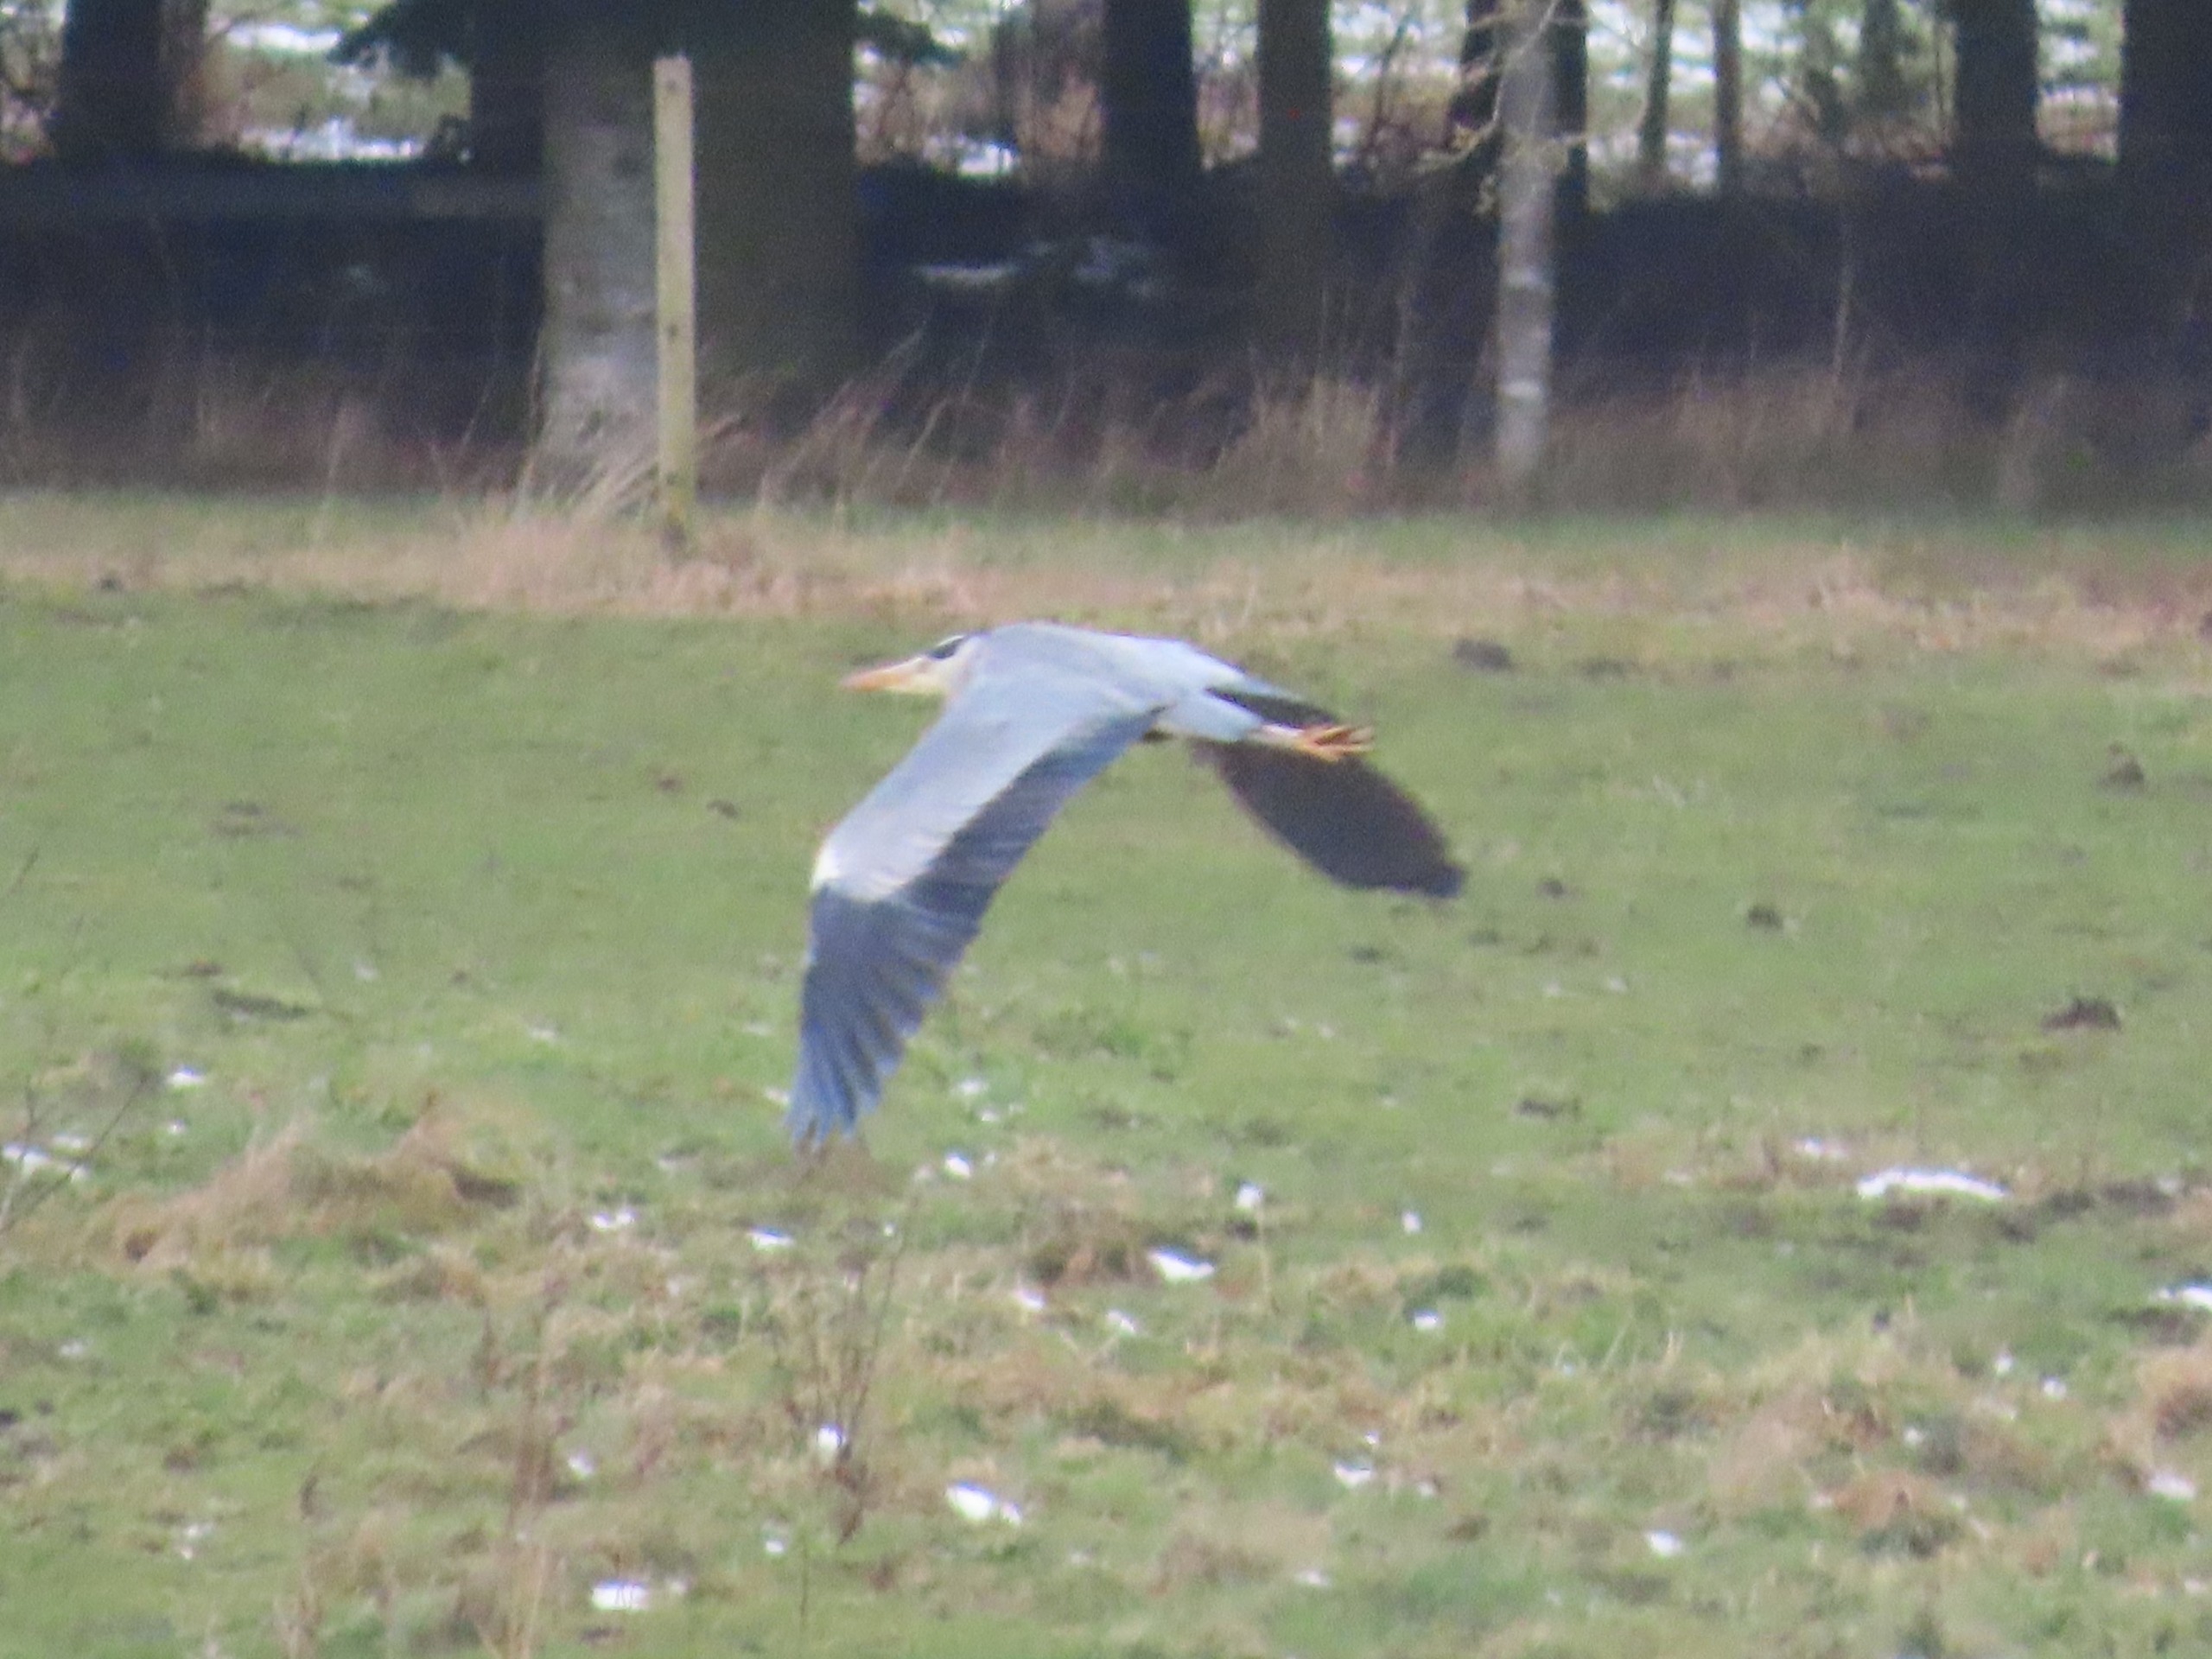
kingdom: Animalia
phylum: Chordata
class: Aves
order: Pelecaniformes
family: Ardeidae
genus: Ardea
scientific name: Ardea cinerea
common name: Fiskehejre
